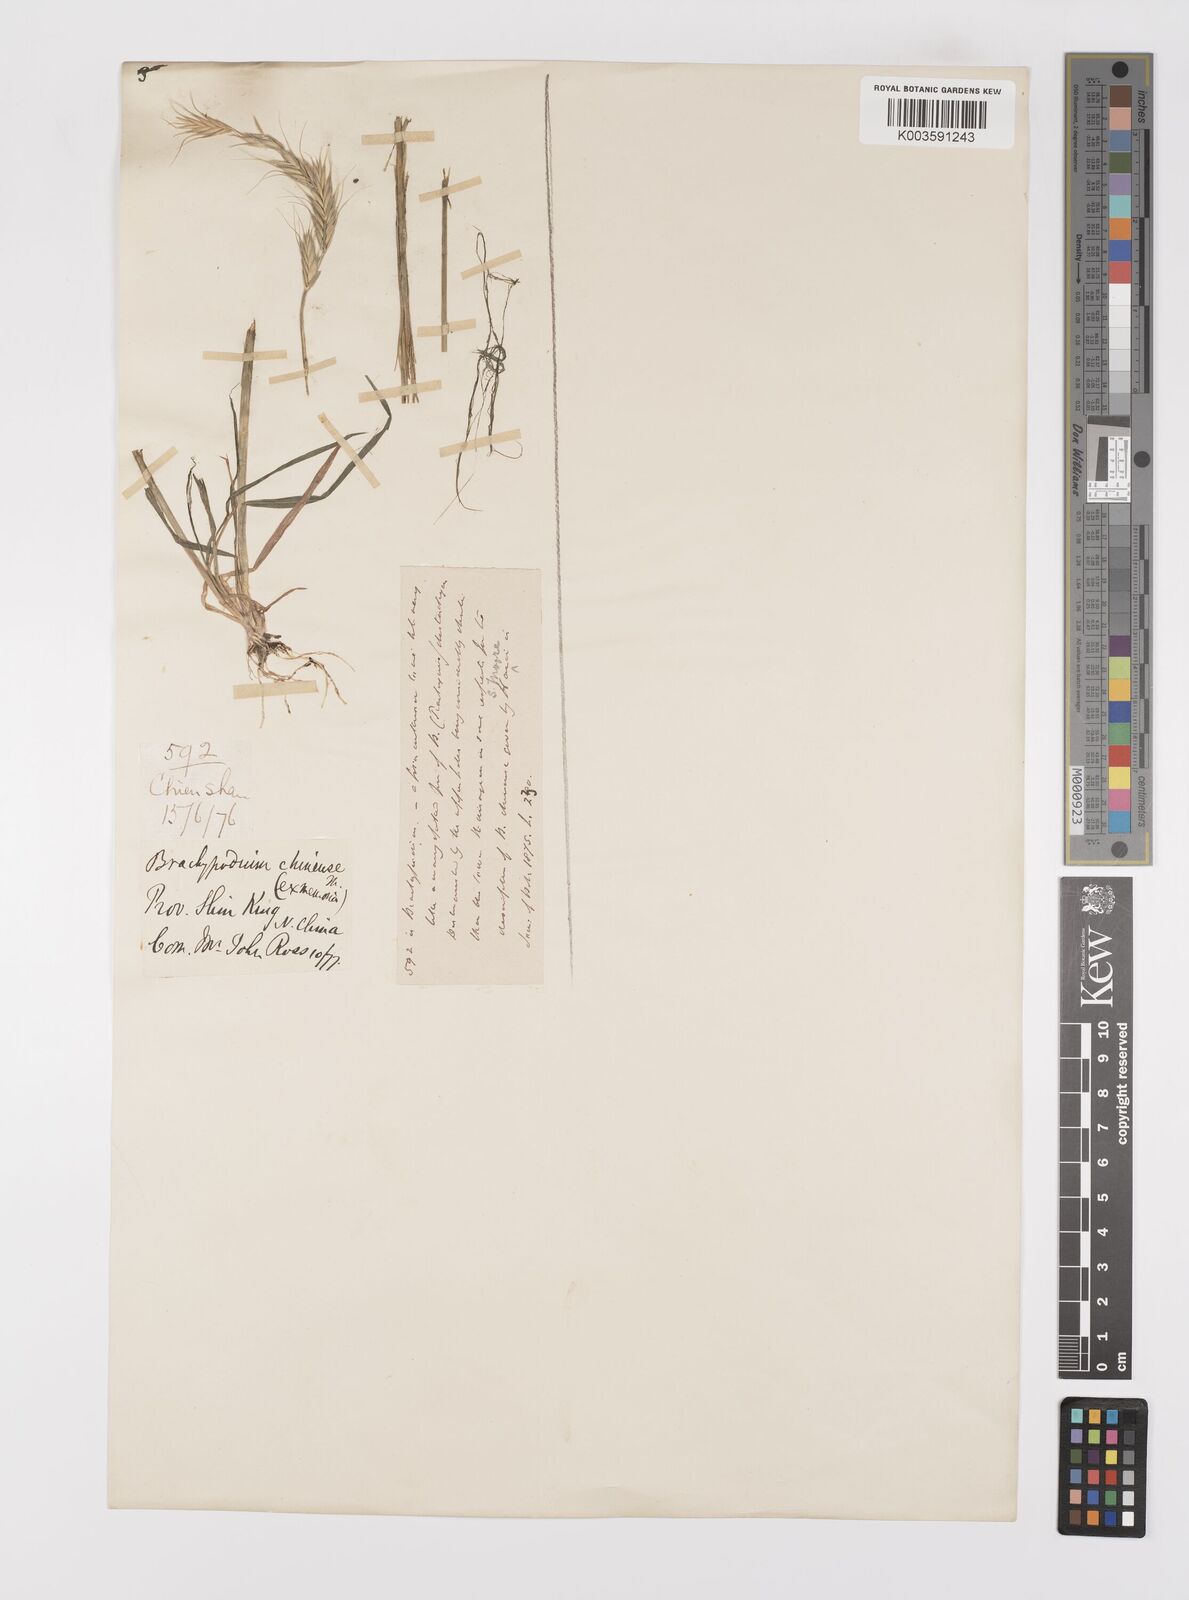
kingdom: Plantae
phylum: Tracheophyta
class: Liliopsida
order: Poales
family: Poaceae
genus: Leymus
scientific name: Leymus chinensis
